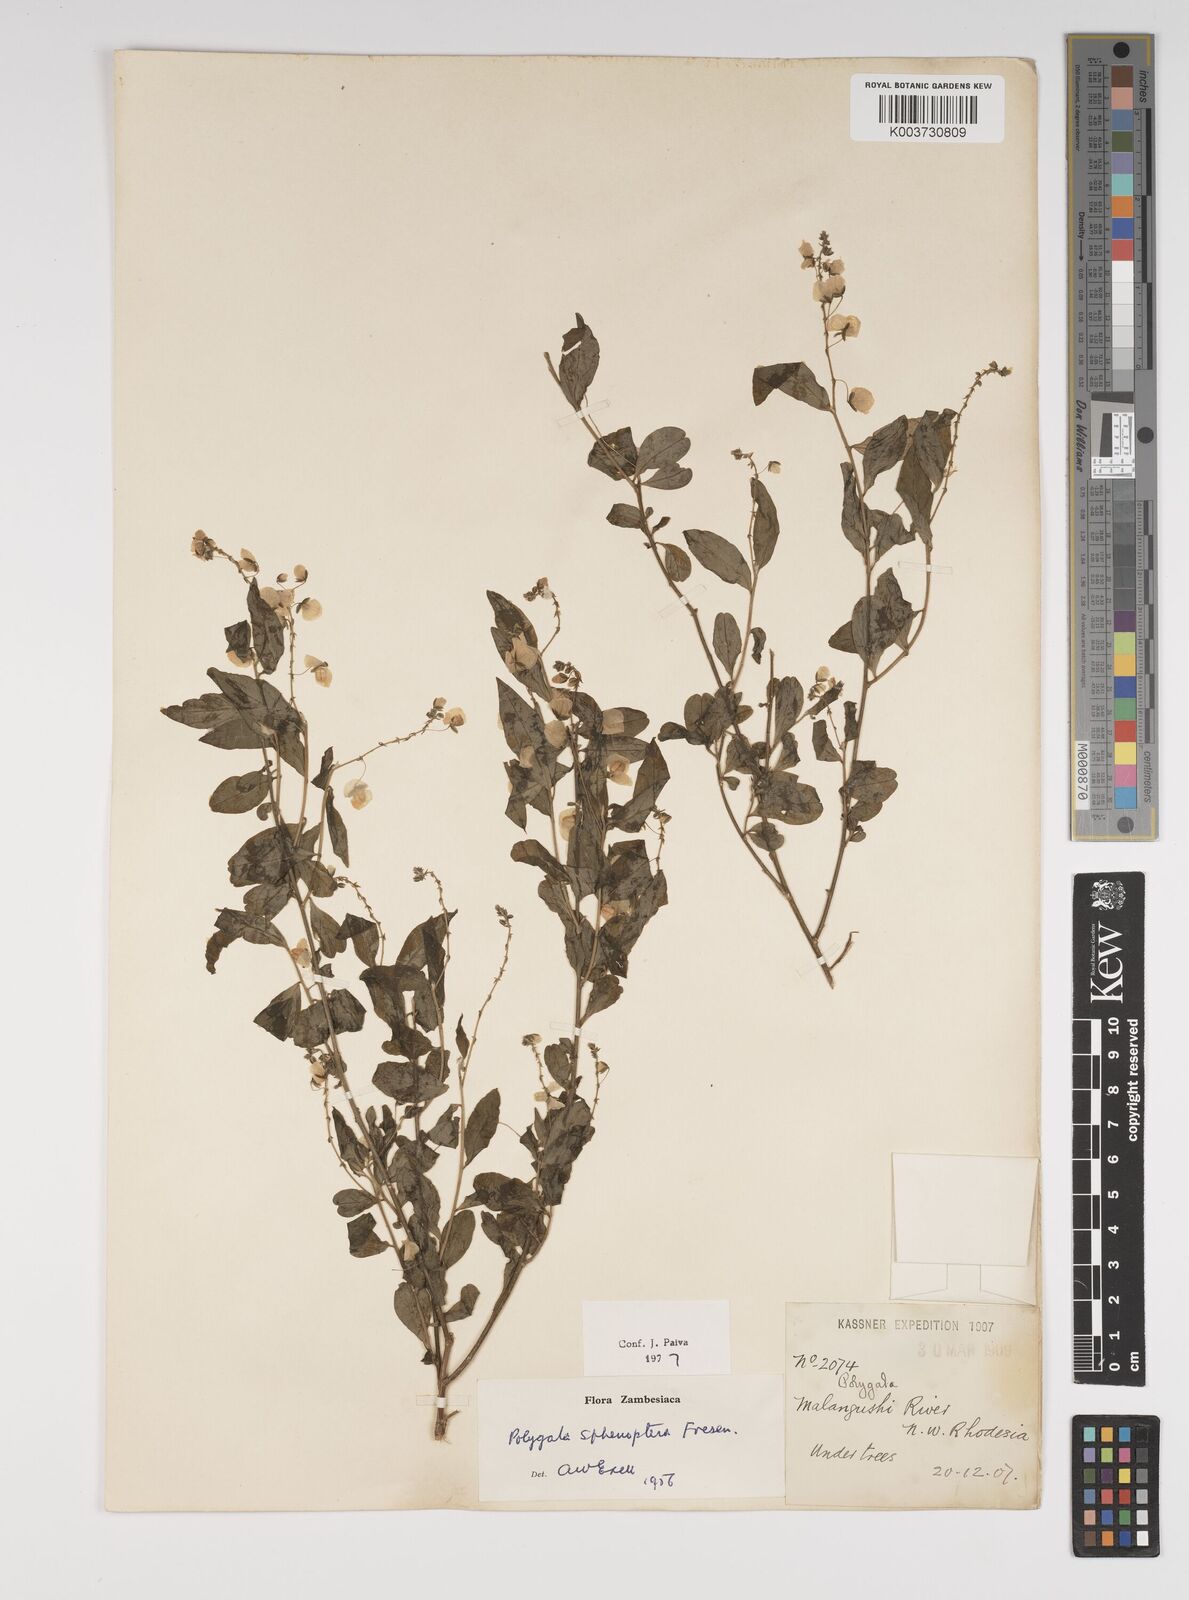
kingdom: Plantae
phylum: Tracheophyta
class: Magnoliopsida
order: Fabales
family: Polygalaceae
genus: Polygala
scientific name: Polygala sphenoptera
